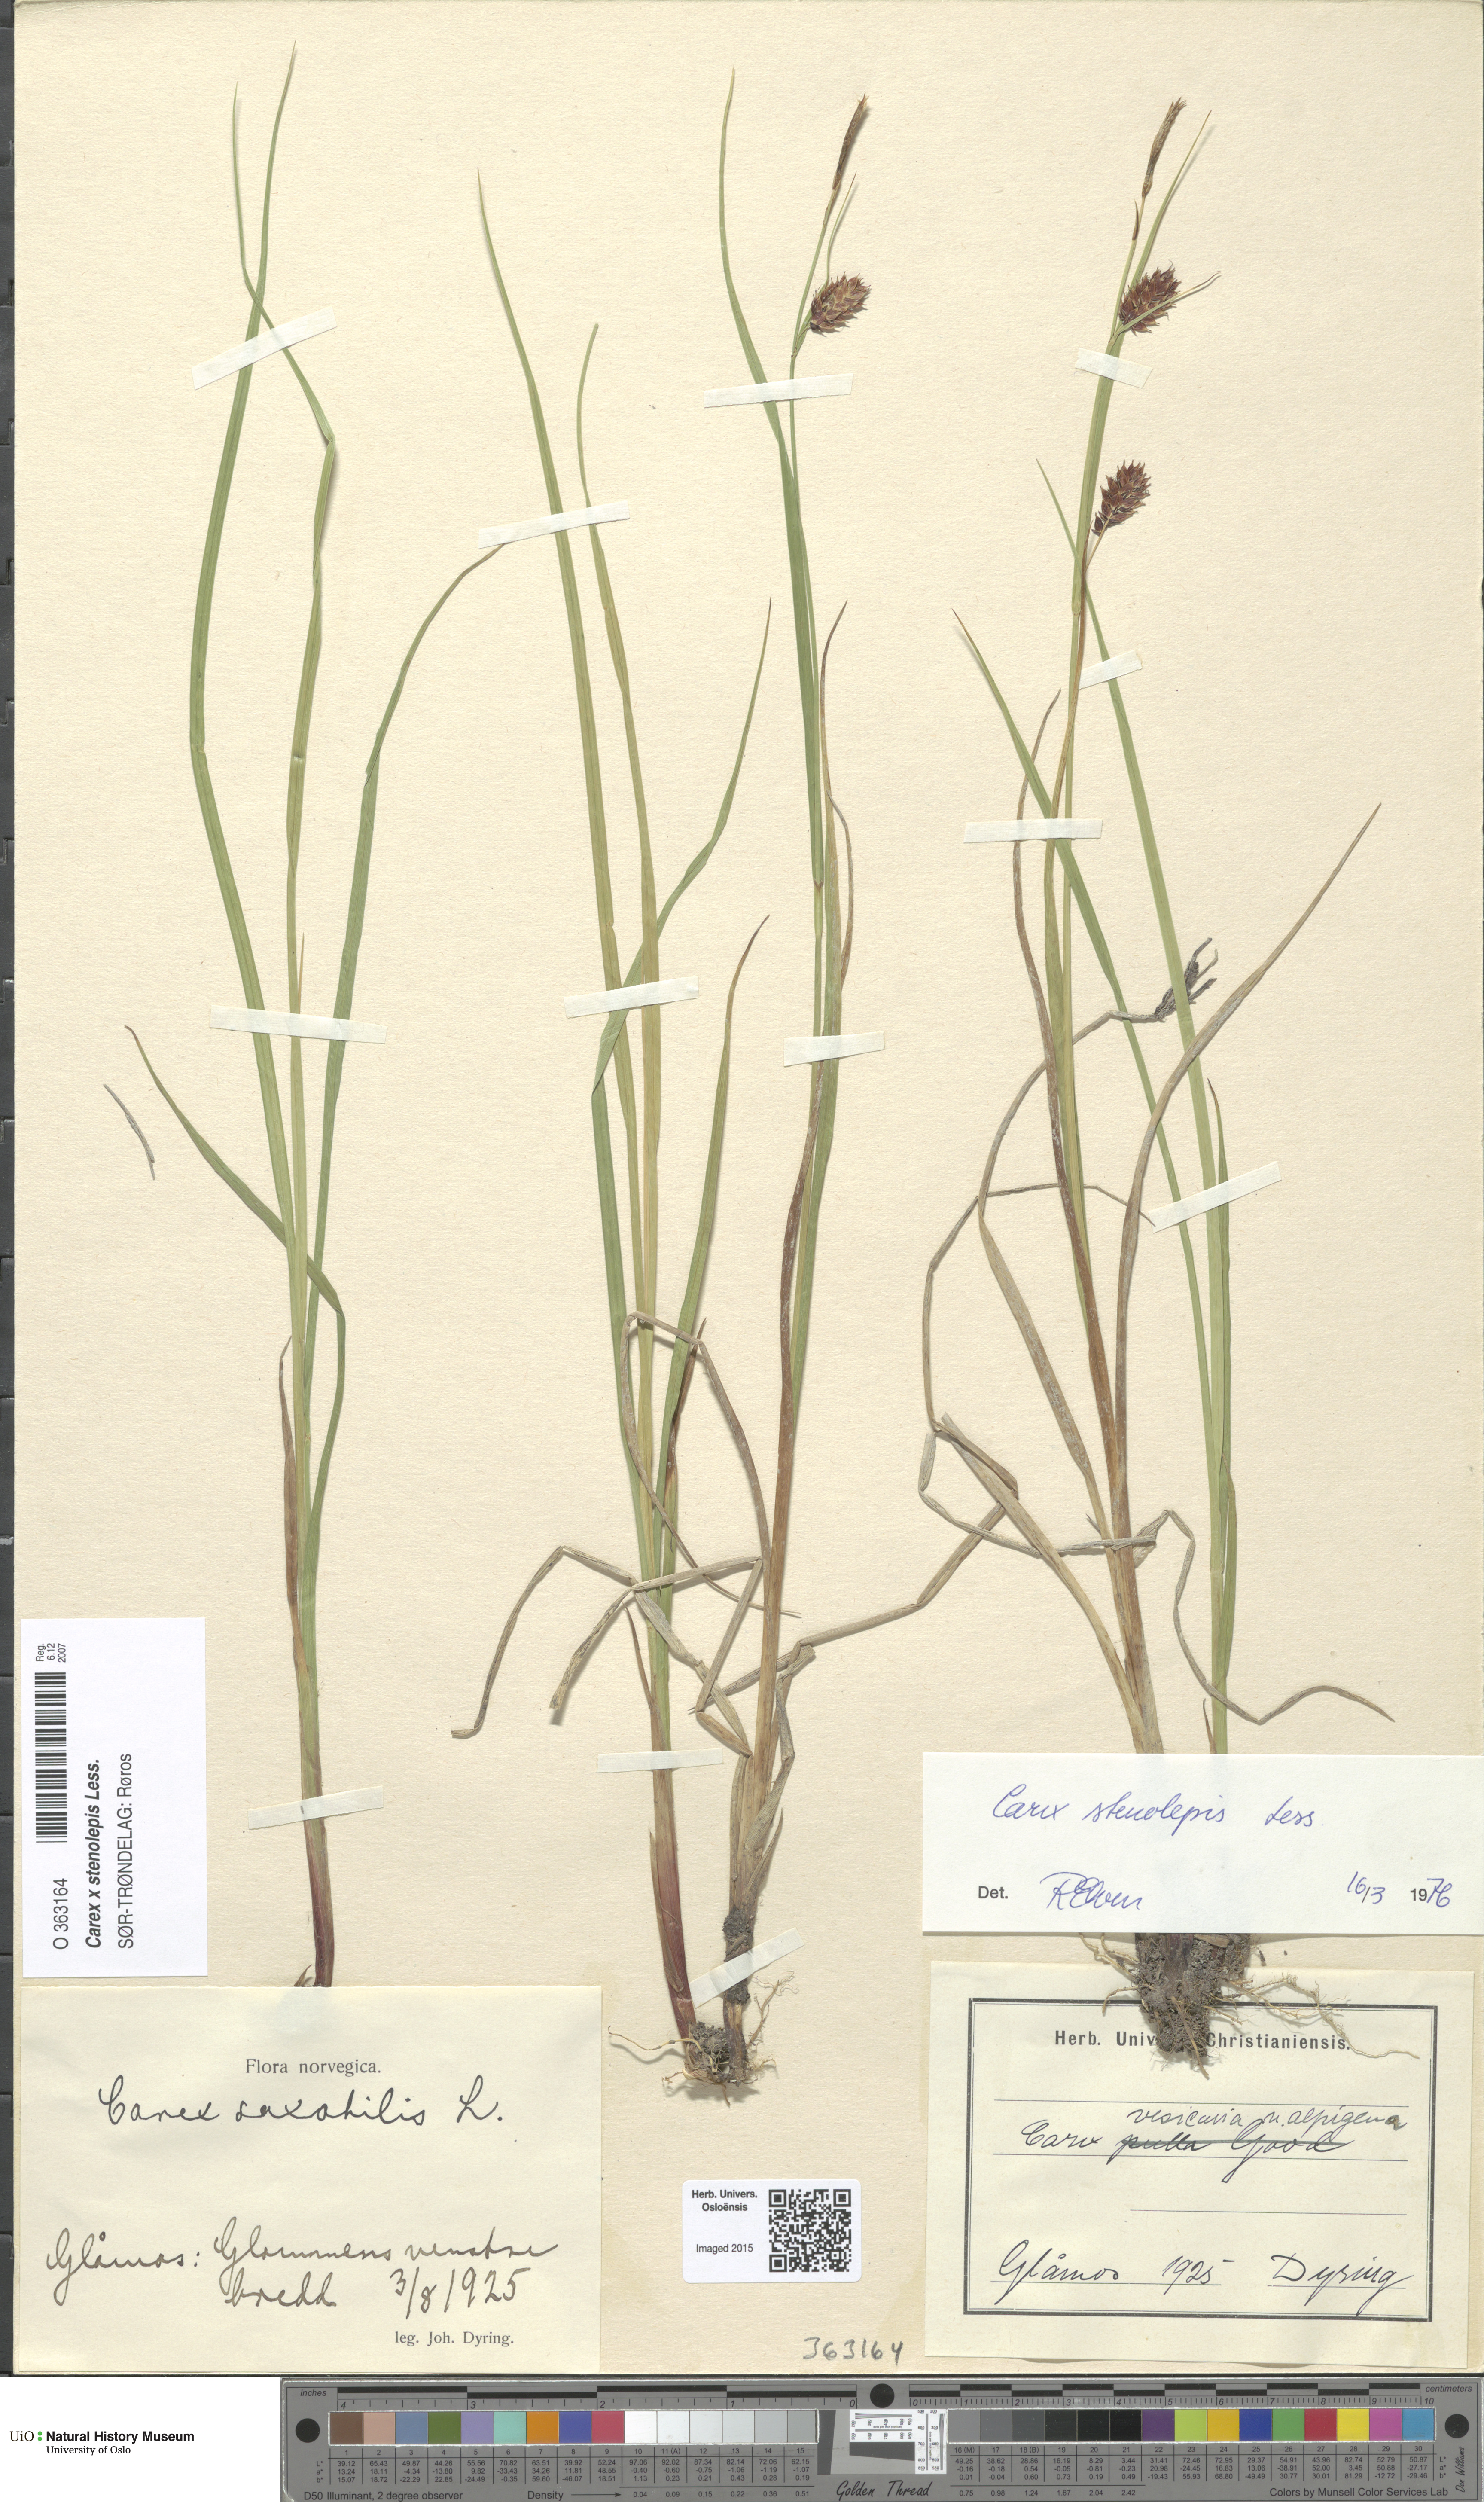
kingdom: Plantae
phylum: Tracheophyta
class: Liliopsida
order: Poales
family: Cyperaceae
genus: Carex
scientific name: Carex grahamii
